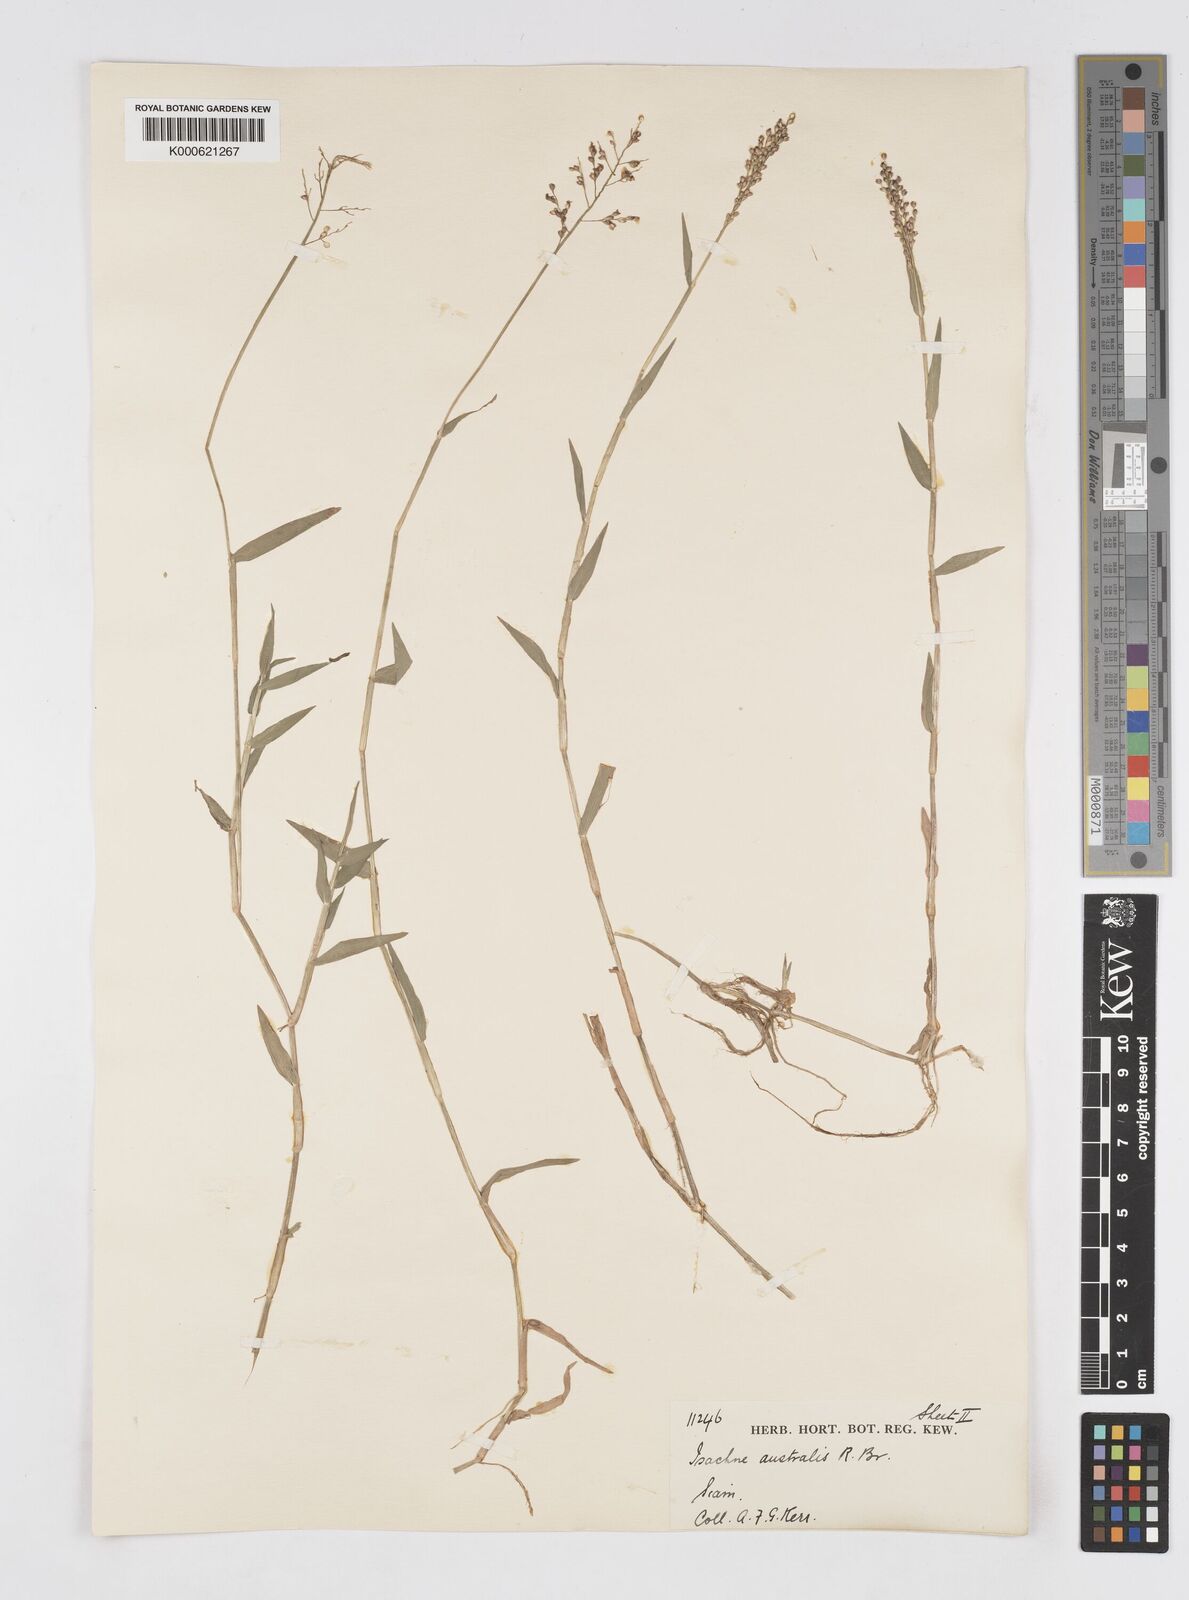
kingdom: Plantae
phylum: Tracheophyta
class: Liliopsida
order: Poales
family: Poaceae
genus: Isachne
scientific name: Isachne globosa
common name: Swamp millet
